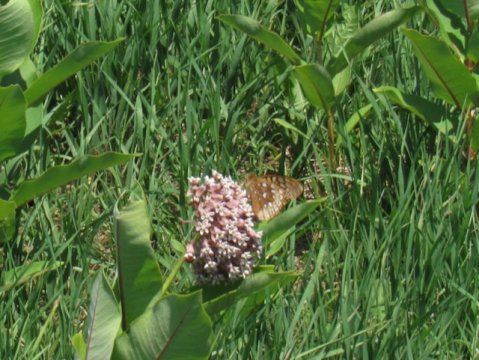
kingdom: Animalia
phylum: Arthropoda
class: Insecta
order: Lepidoptera
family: Nymphalidae
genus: Speyeria
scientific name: Speyeria cybele
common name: Great Spangled Fritillary
